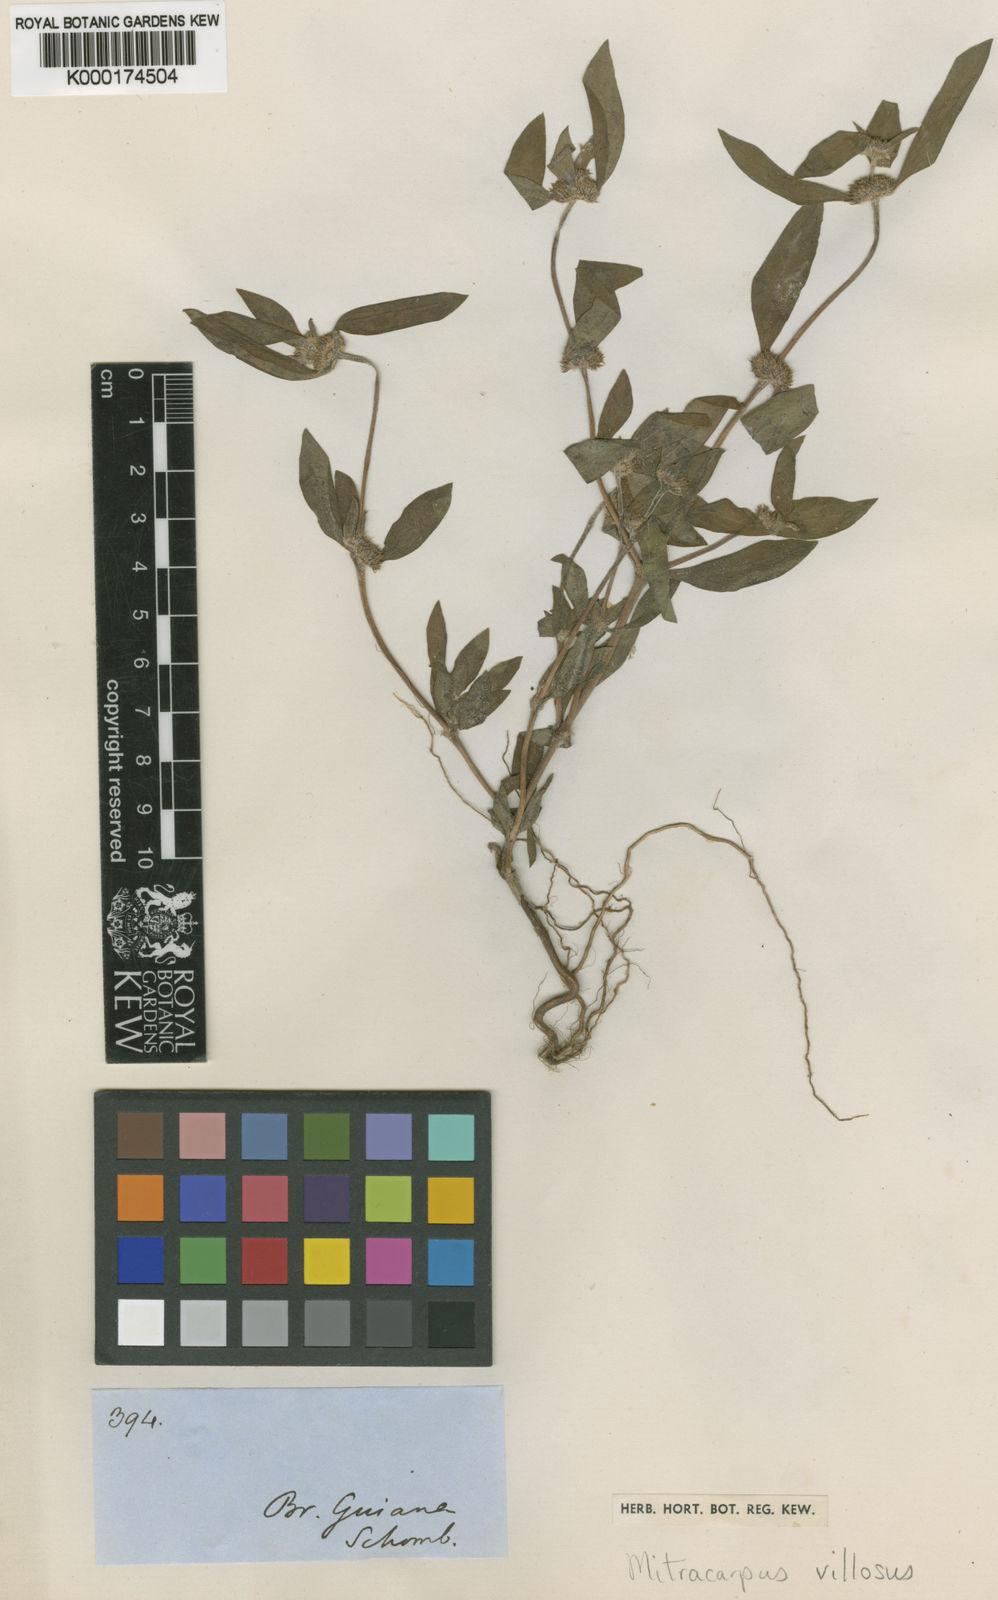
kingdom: Plantae
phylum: Tracheophyta
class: Magnoliopsida
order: Gentianales
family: Rubiaceae
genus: Mitracarpus
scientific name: Mitracarpus hirtus
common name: Tropical girdlepod
